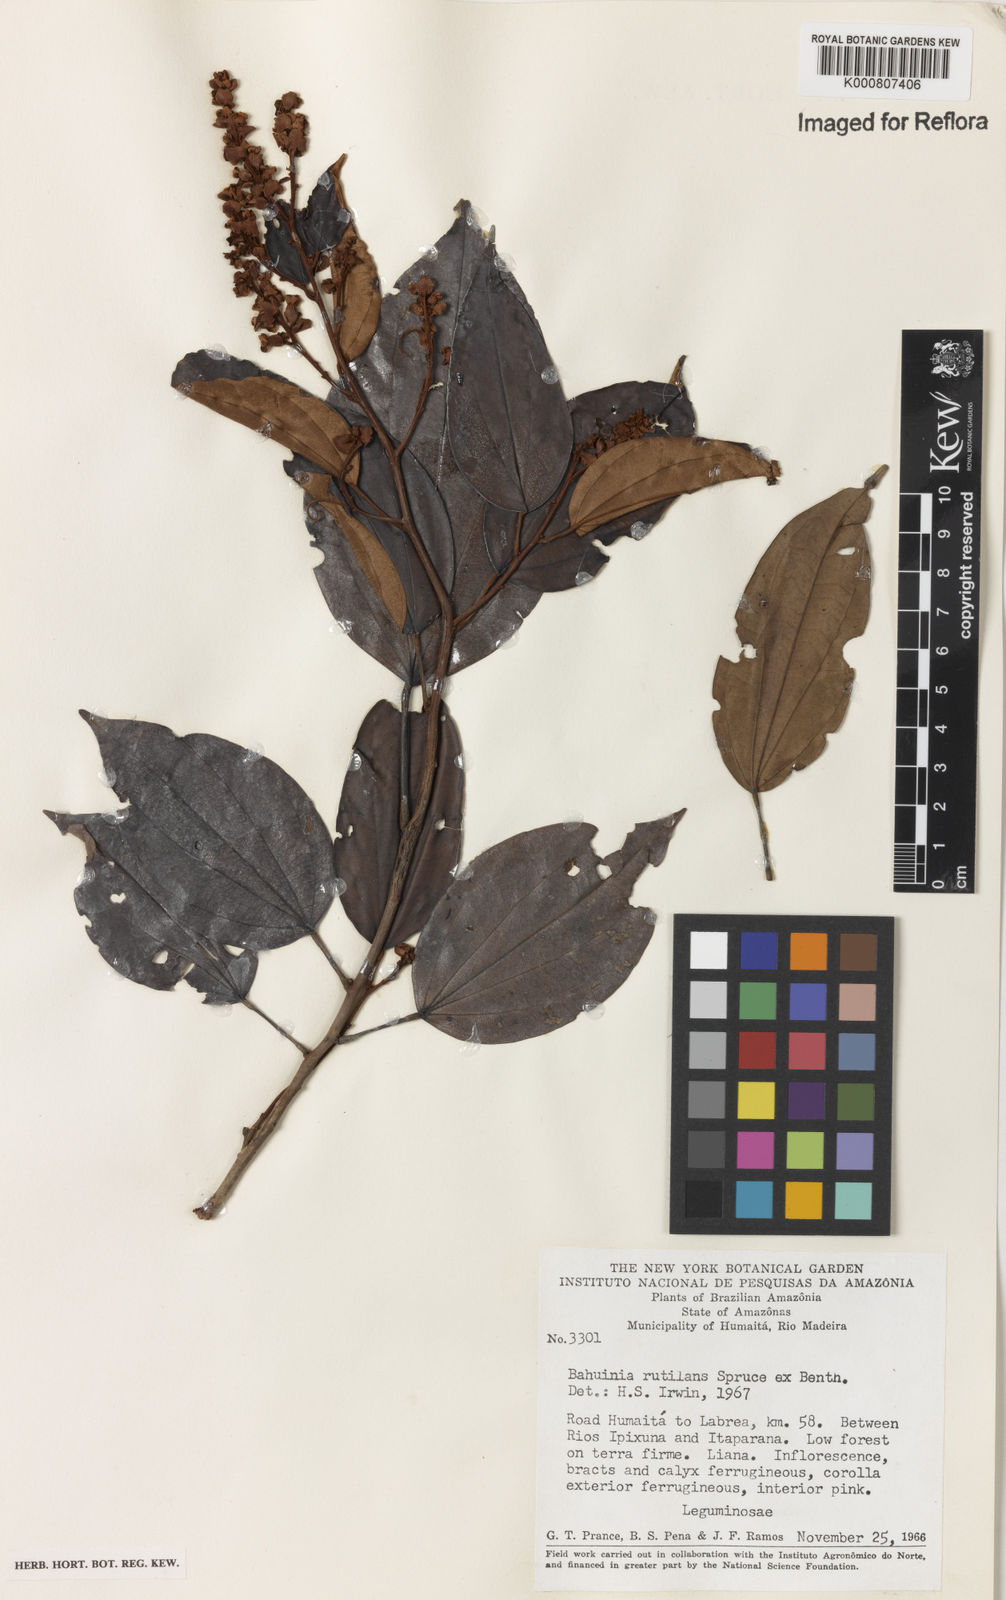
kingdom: Plantae
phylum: Tracheophyta
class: Magnoliopsida
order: Fabales
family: Fabaceae
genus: Schnella
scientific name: Schnella rutilans
